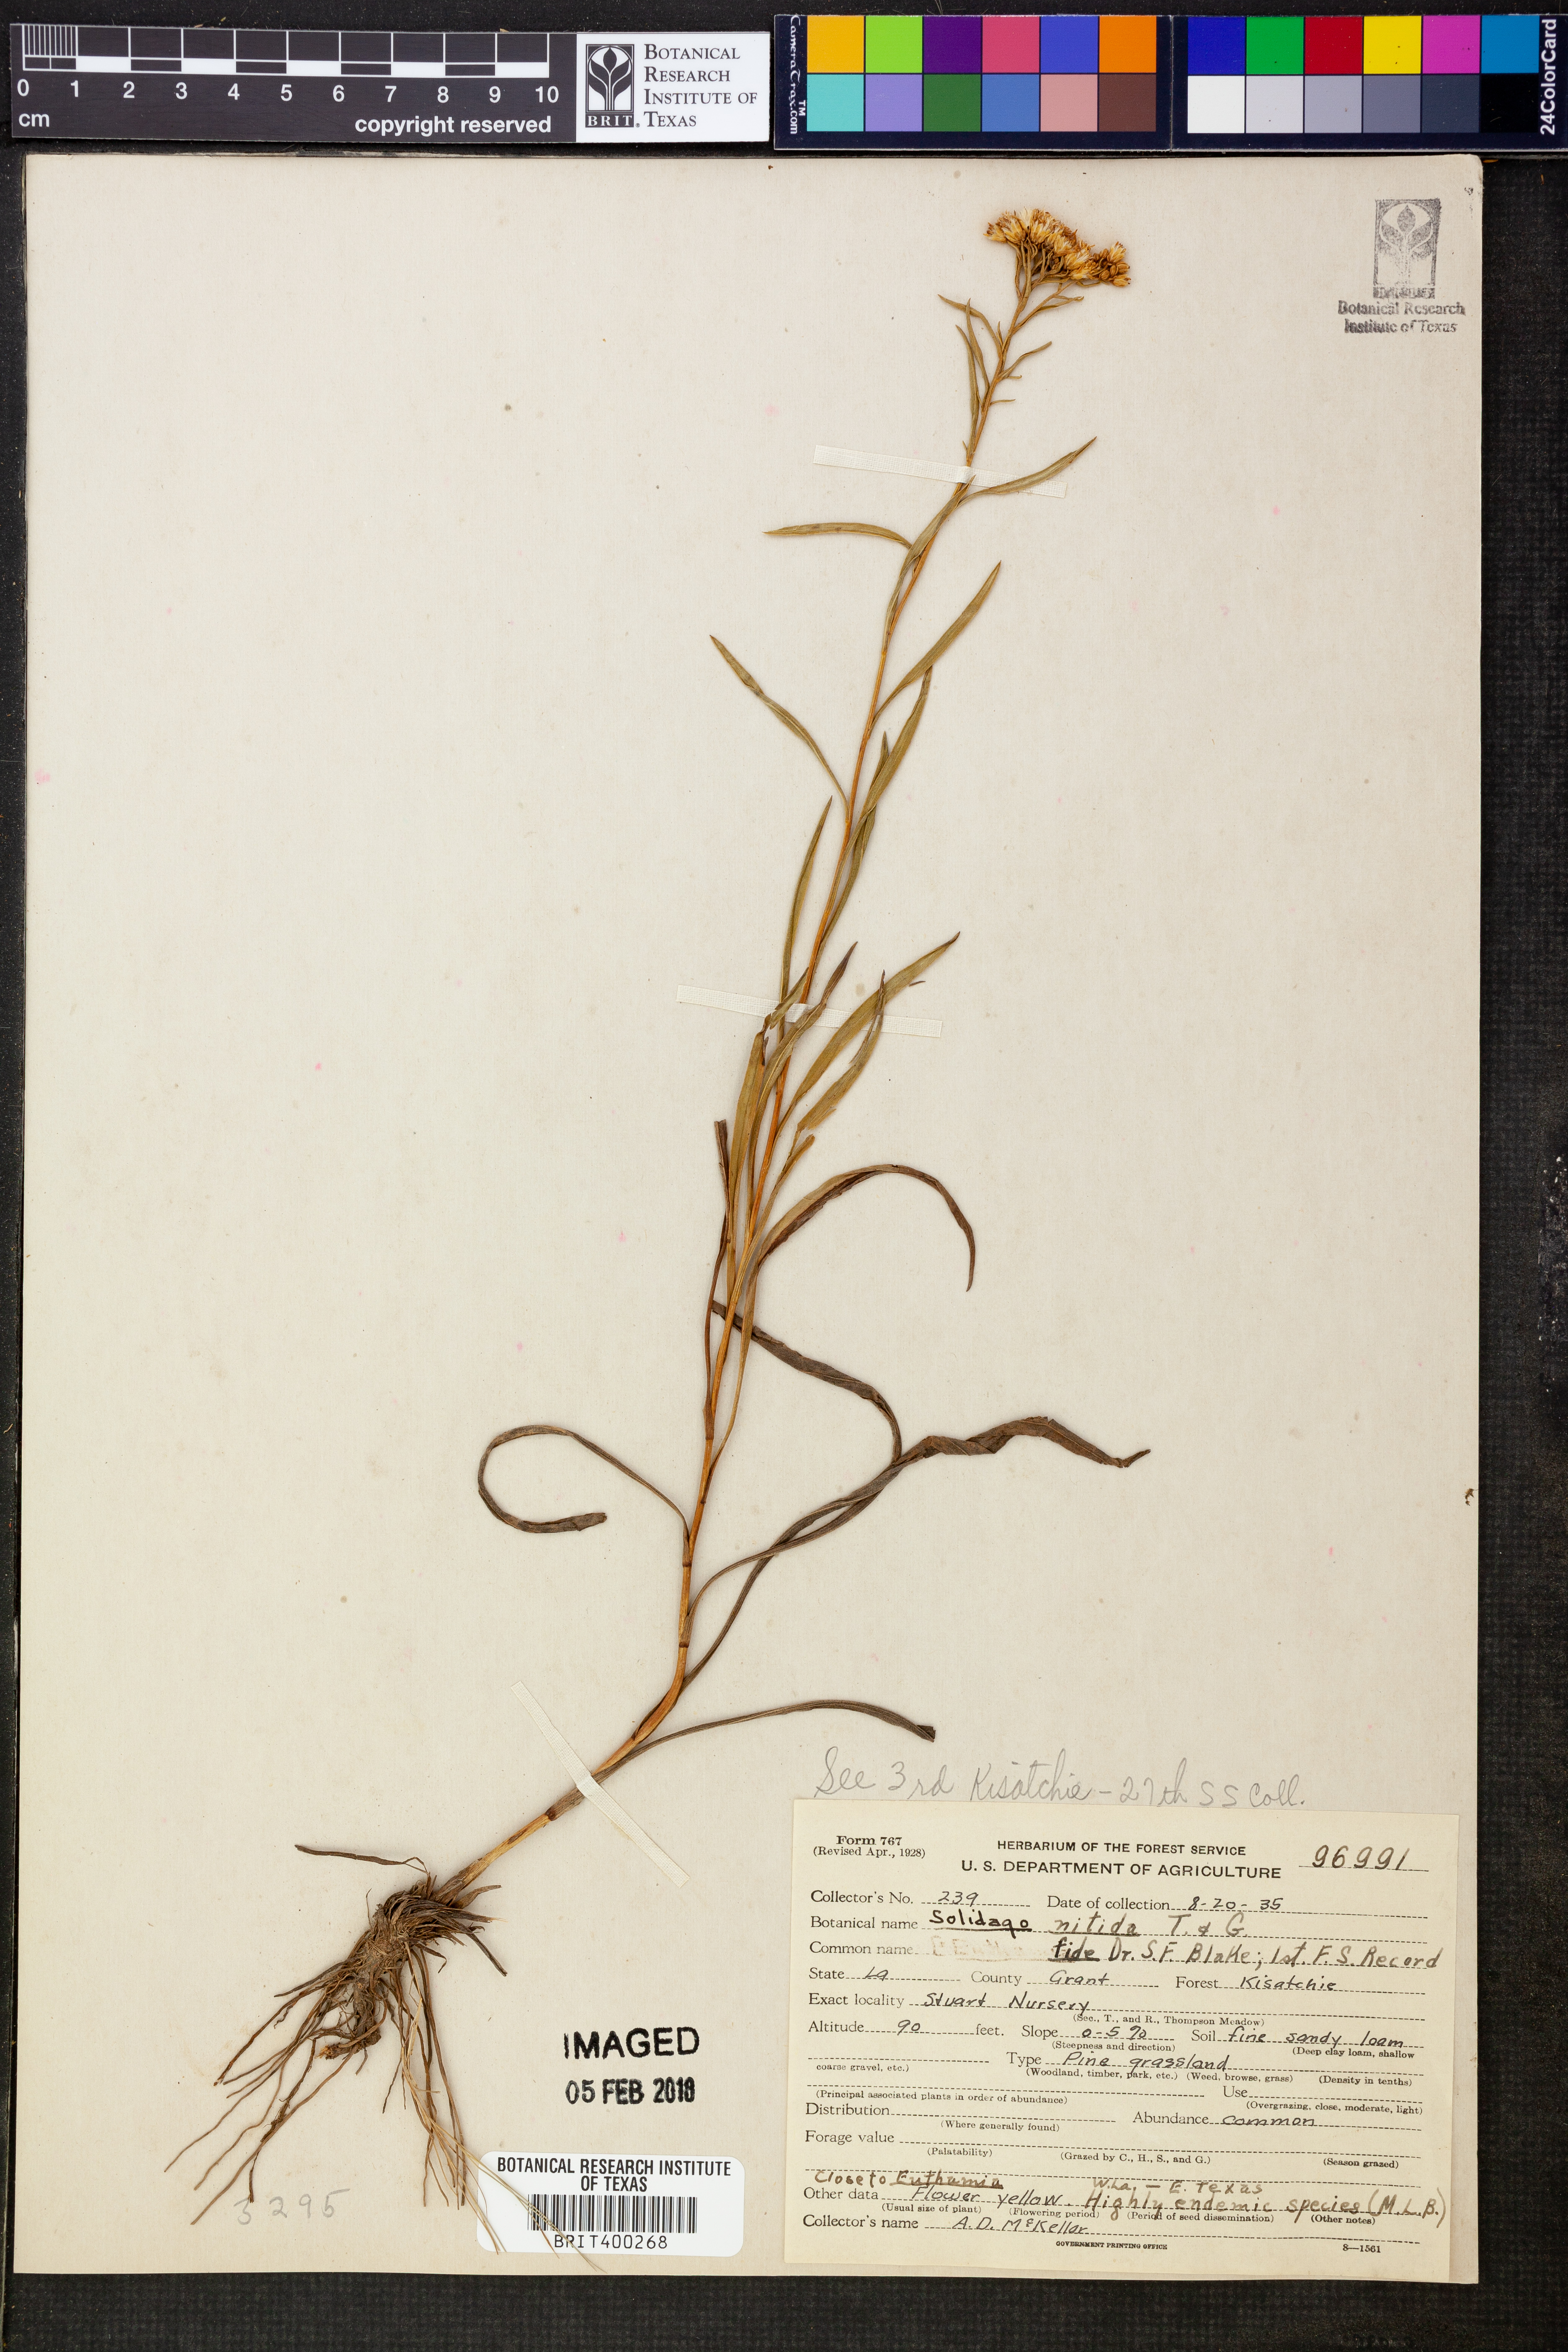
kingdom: Plantae
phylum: Tracheophyta
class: Magnoliopsida
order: Asterales
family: Asteraceae
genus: Solidago
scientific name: Solidago nitida
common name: Shiny goldenrod
